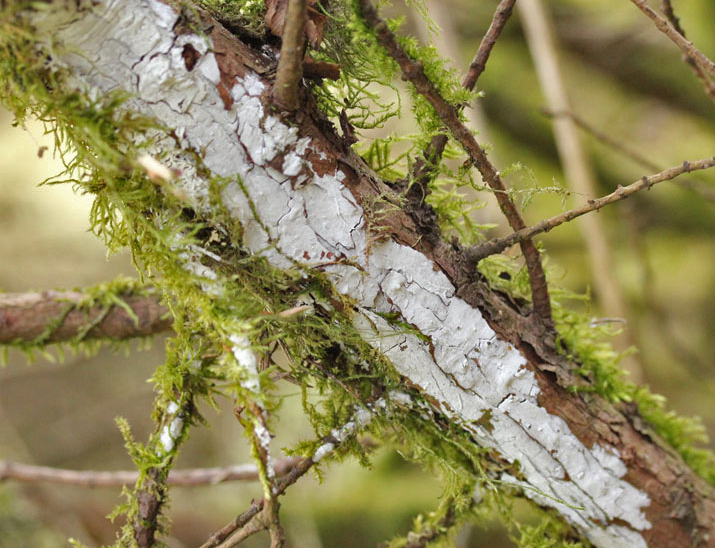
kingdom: Fungi
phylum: Basidiomycota
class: Agaricomycetes
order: Corticiales
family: Corticiaceae
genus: Lyomyces
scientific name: Lyomyces
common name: hyldehinde
